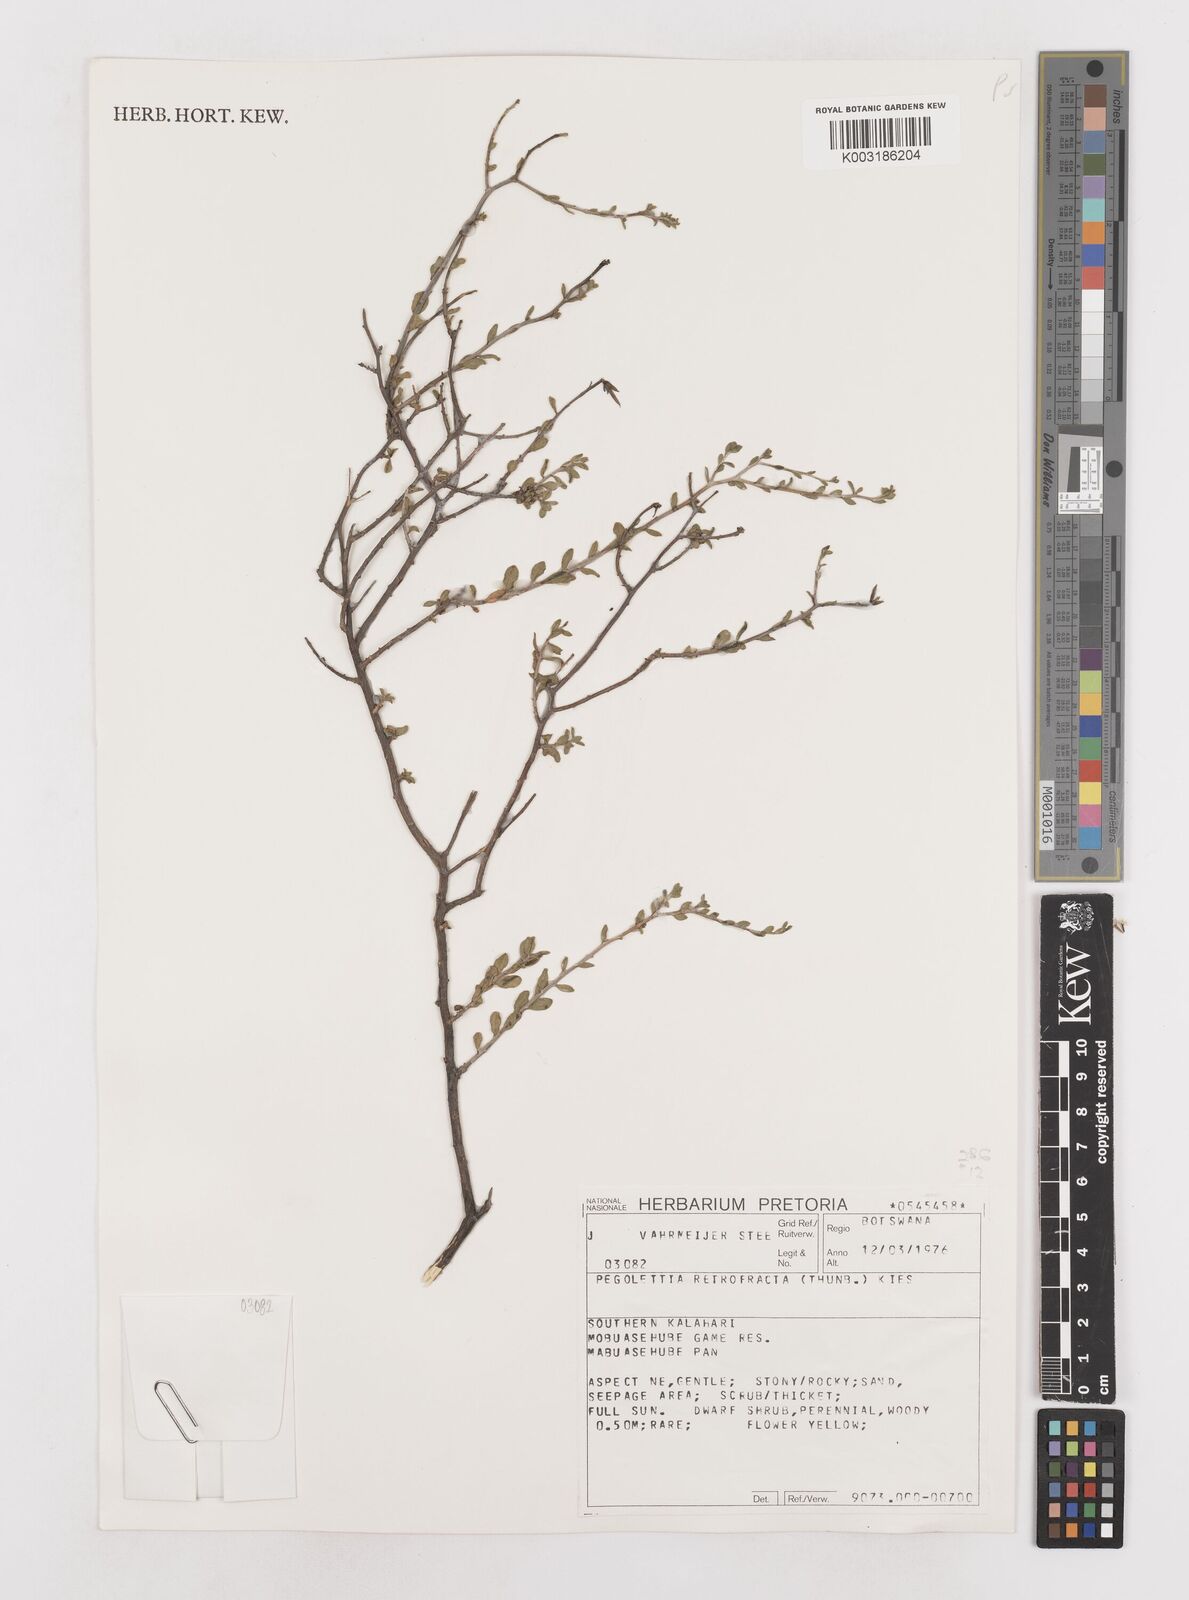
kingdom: Plantae
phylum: Tracheophyta
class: Magnoliopsida
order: Asterales
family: Asteraceae
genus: Pegolettia
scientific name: Pegolettia retrofracta
